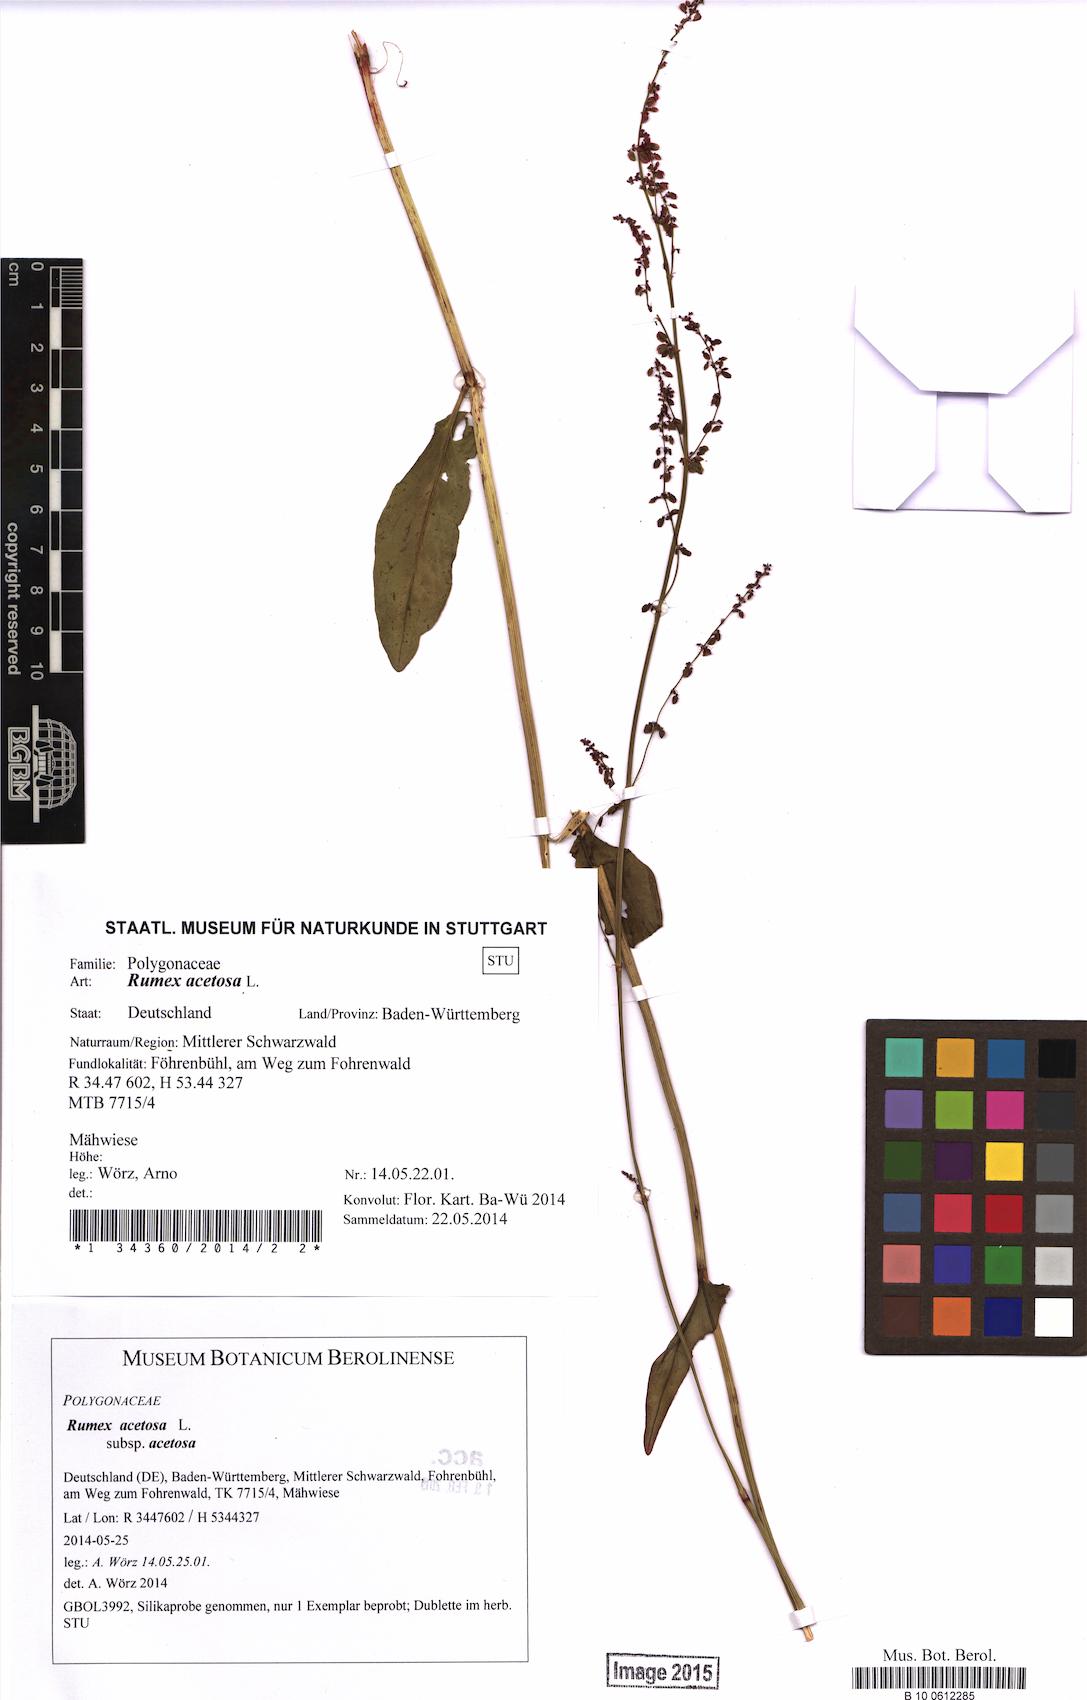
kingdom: Plantae
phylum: Tracheophyta
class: Magnoliopsida
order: Caryophyllales
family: Polygonaceae
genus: Rumex
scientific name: Rumex acetosa
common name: Garden sorrel
